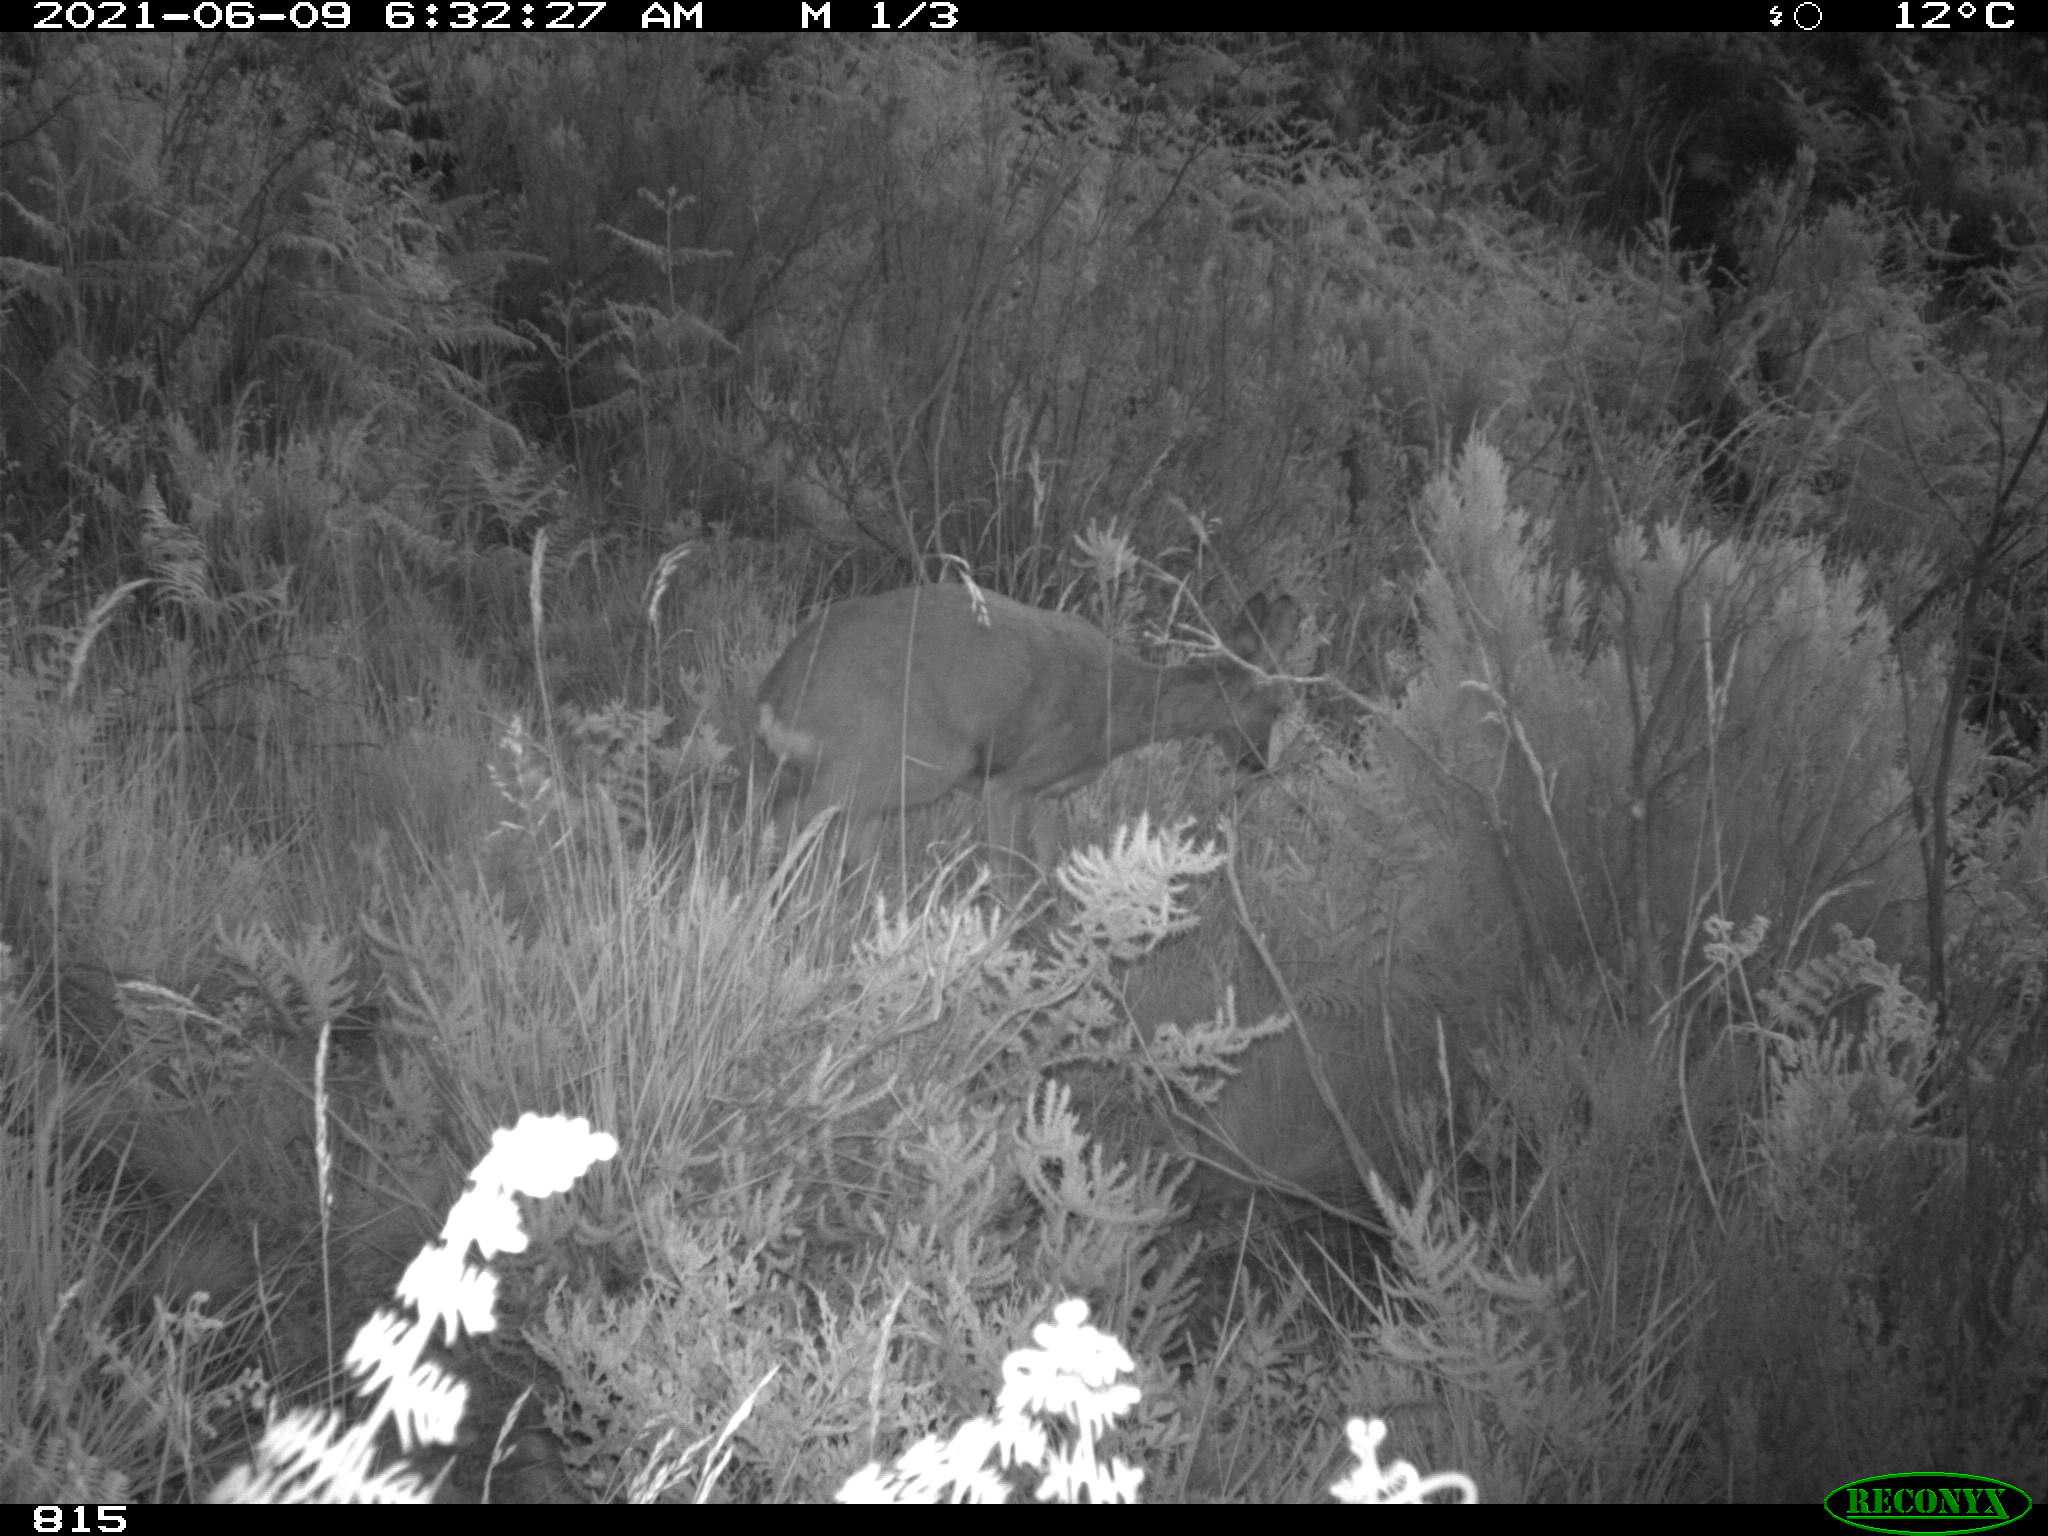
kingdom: Animalia
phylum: Chordata
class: Mammalia
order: Artiodactyla
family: Cervidae
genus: Capreolus
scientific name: Capreolus capreolus
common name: Western roe deer
